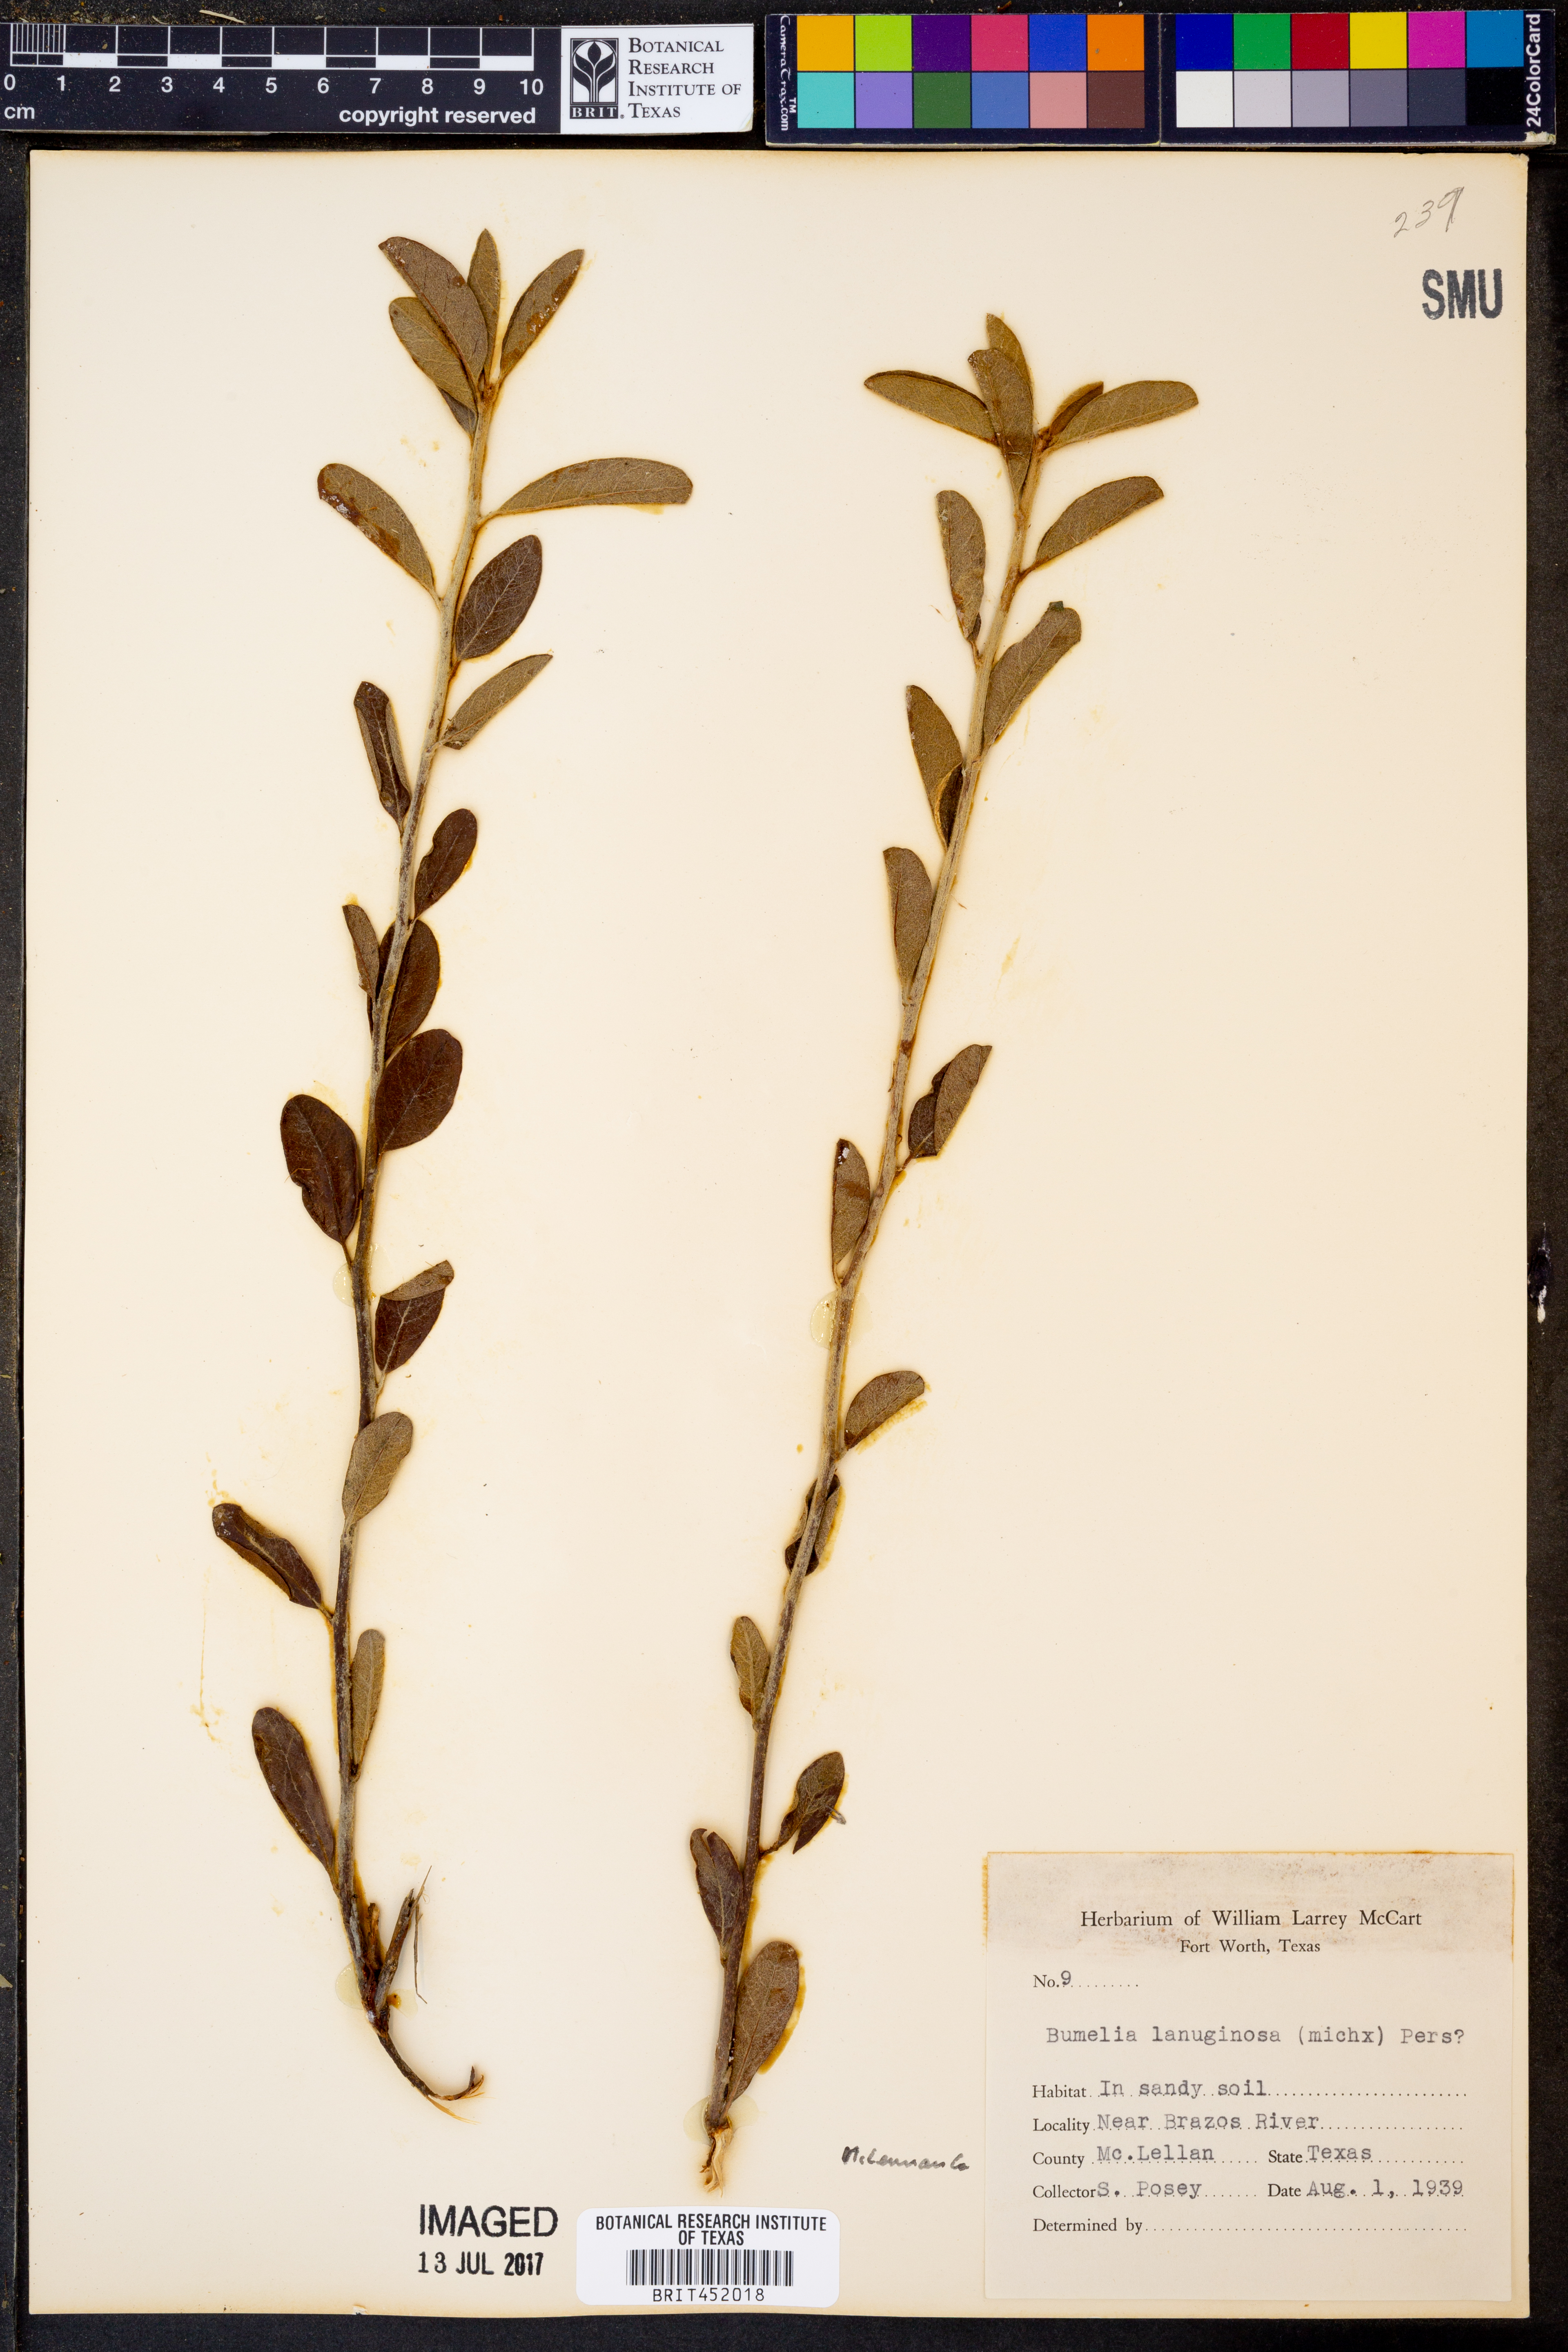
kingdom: Plantae
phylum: Tracheophyta
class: Magnoliopsida
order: Ericales
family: Sapotaceae
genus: Sideroxylon
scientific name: Sideroxylon lanuginosum
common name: Chittamwood
